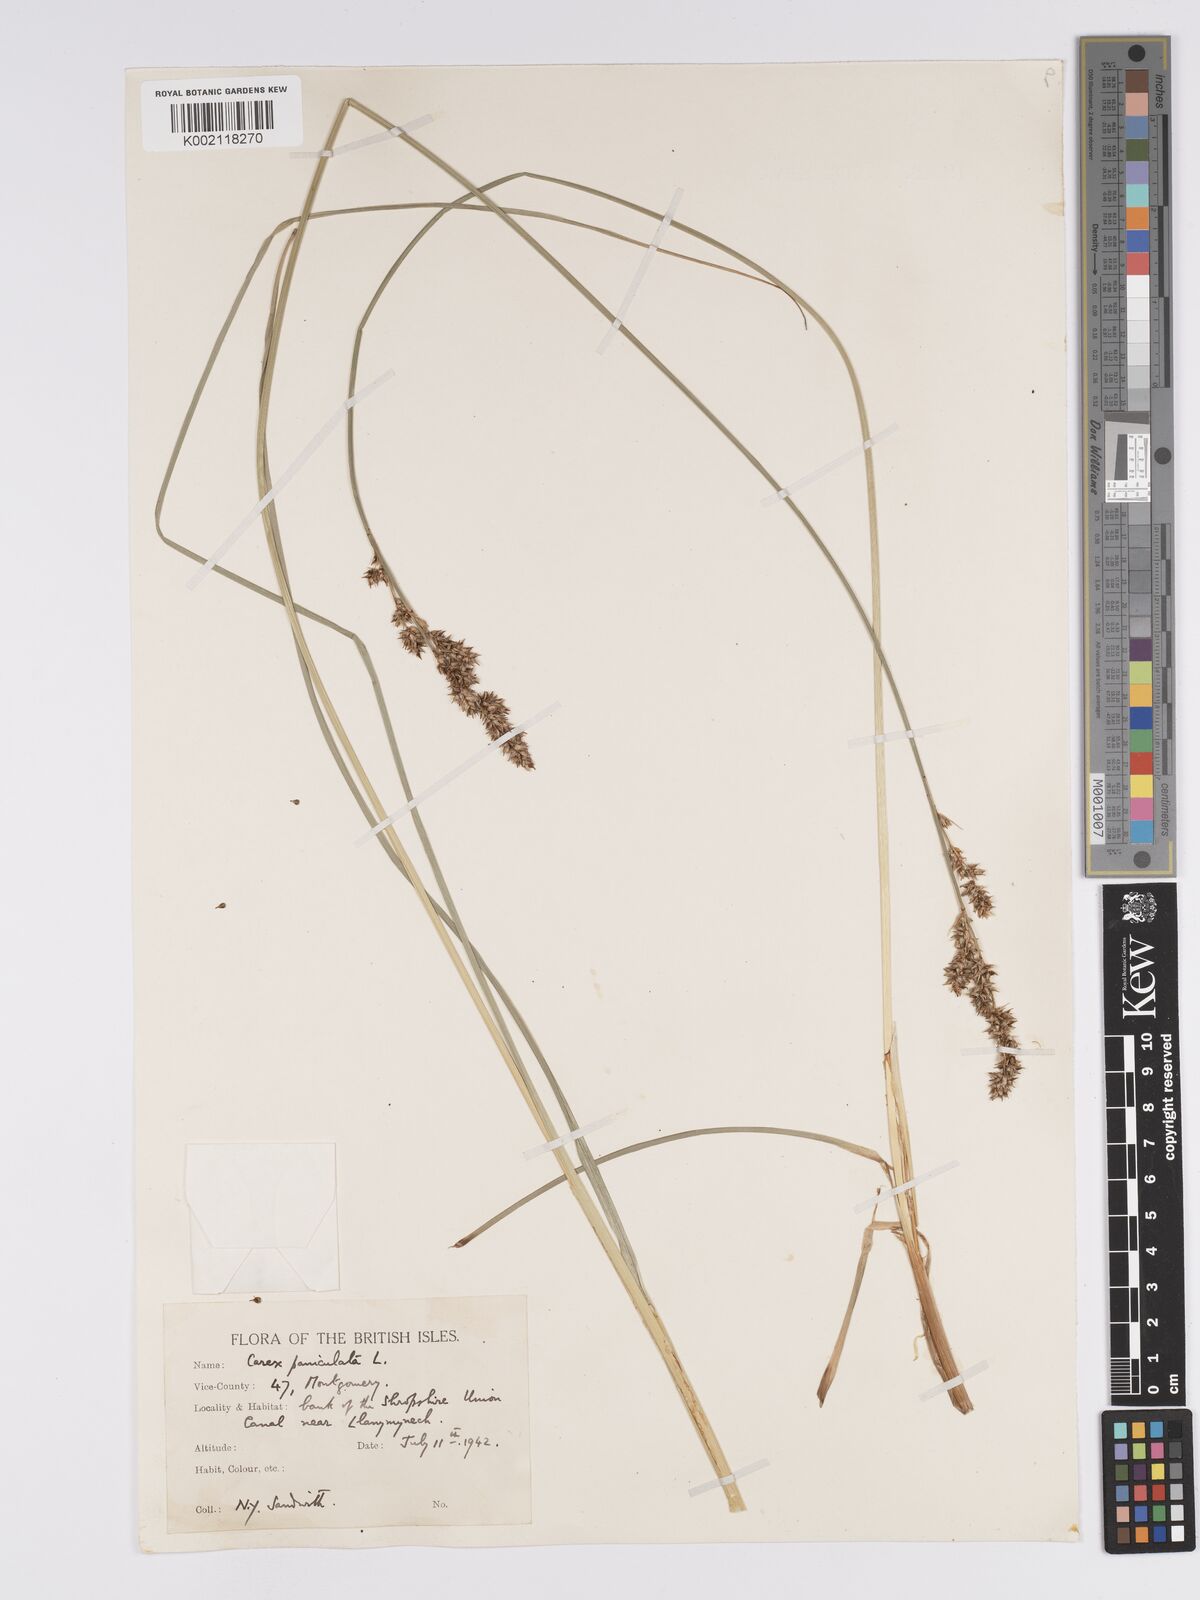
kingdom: Plantae
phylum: Tracheophyta
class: Liliopsida
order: Poales
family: Cyperaceae
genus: Carex
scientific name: Carex paniculata
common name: Greater tussock-sedge
